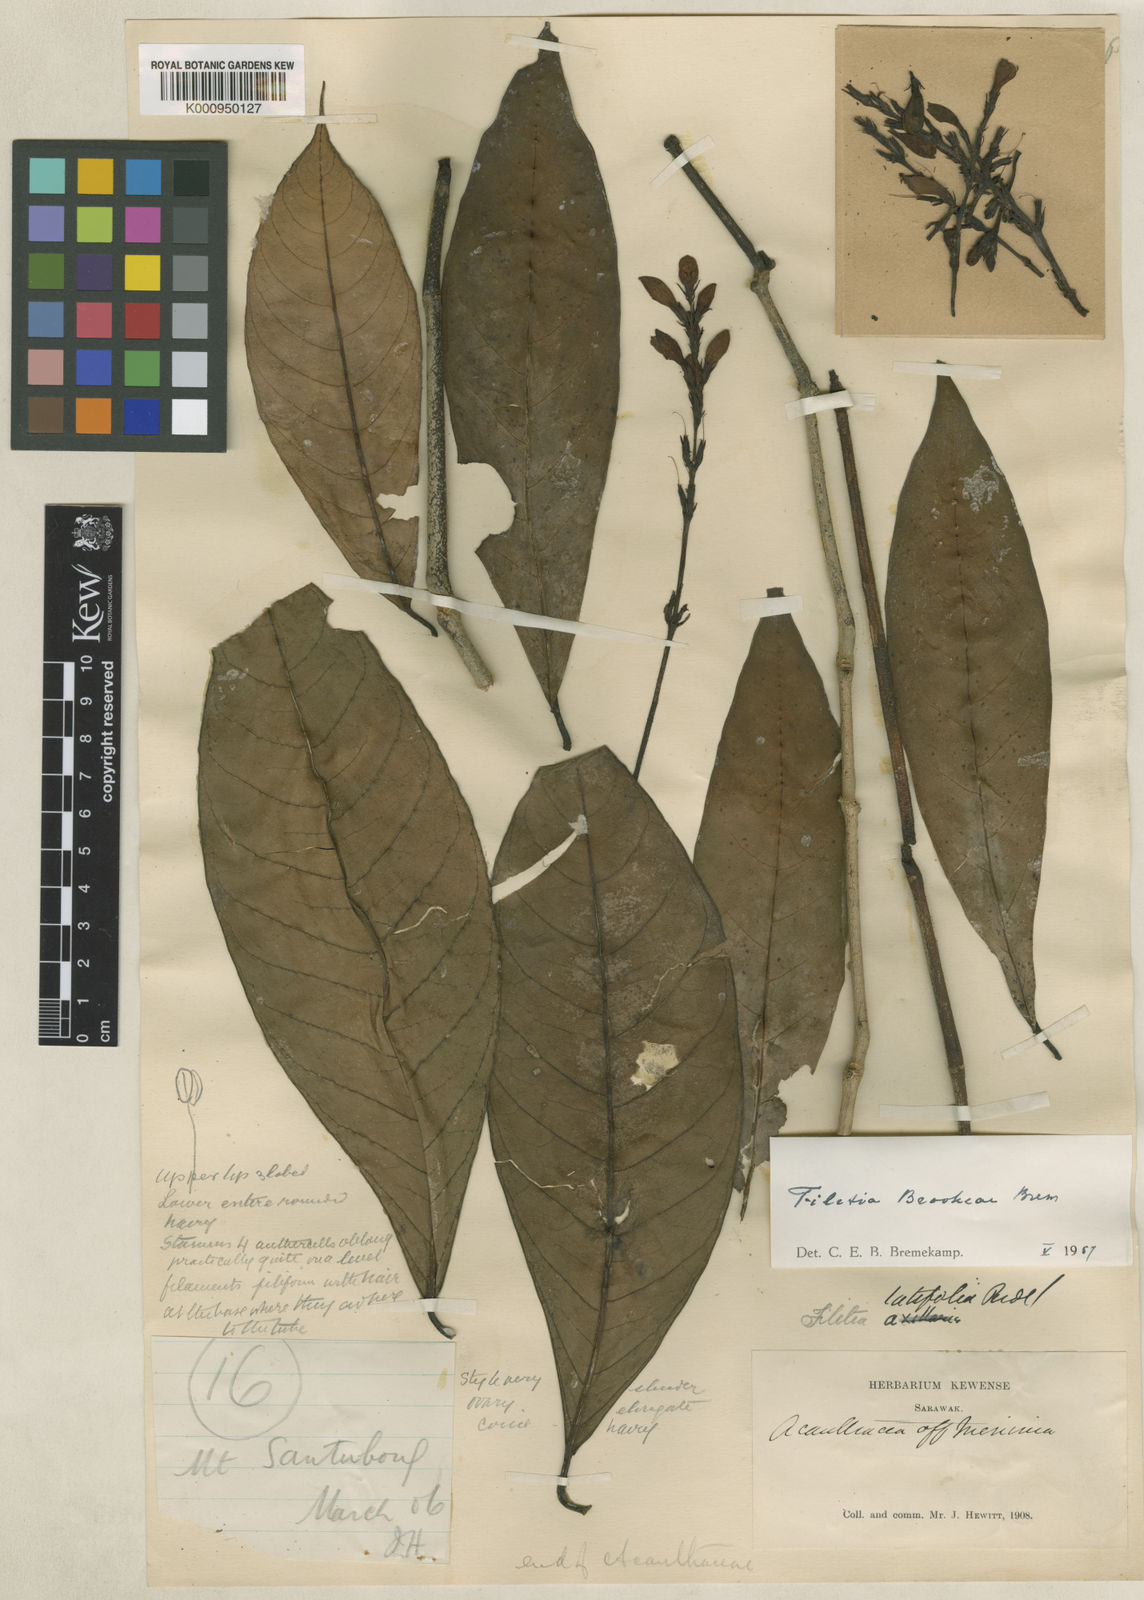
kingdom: Plantae
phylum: Tracheophyta
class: Magnoliopsida
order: Lamiales
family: Acanthaceae
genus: Filetia
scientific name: Filetia brookeae
